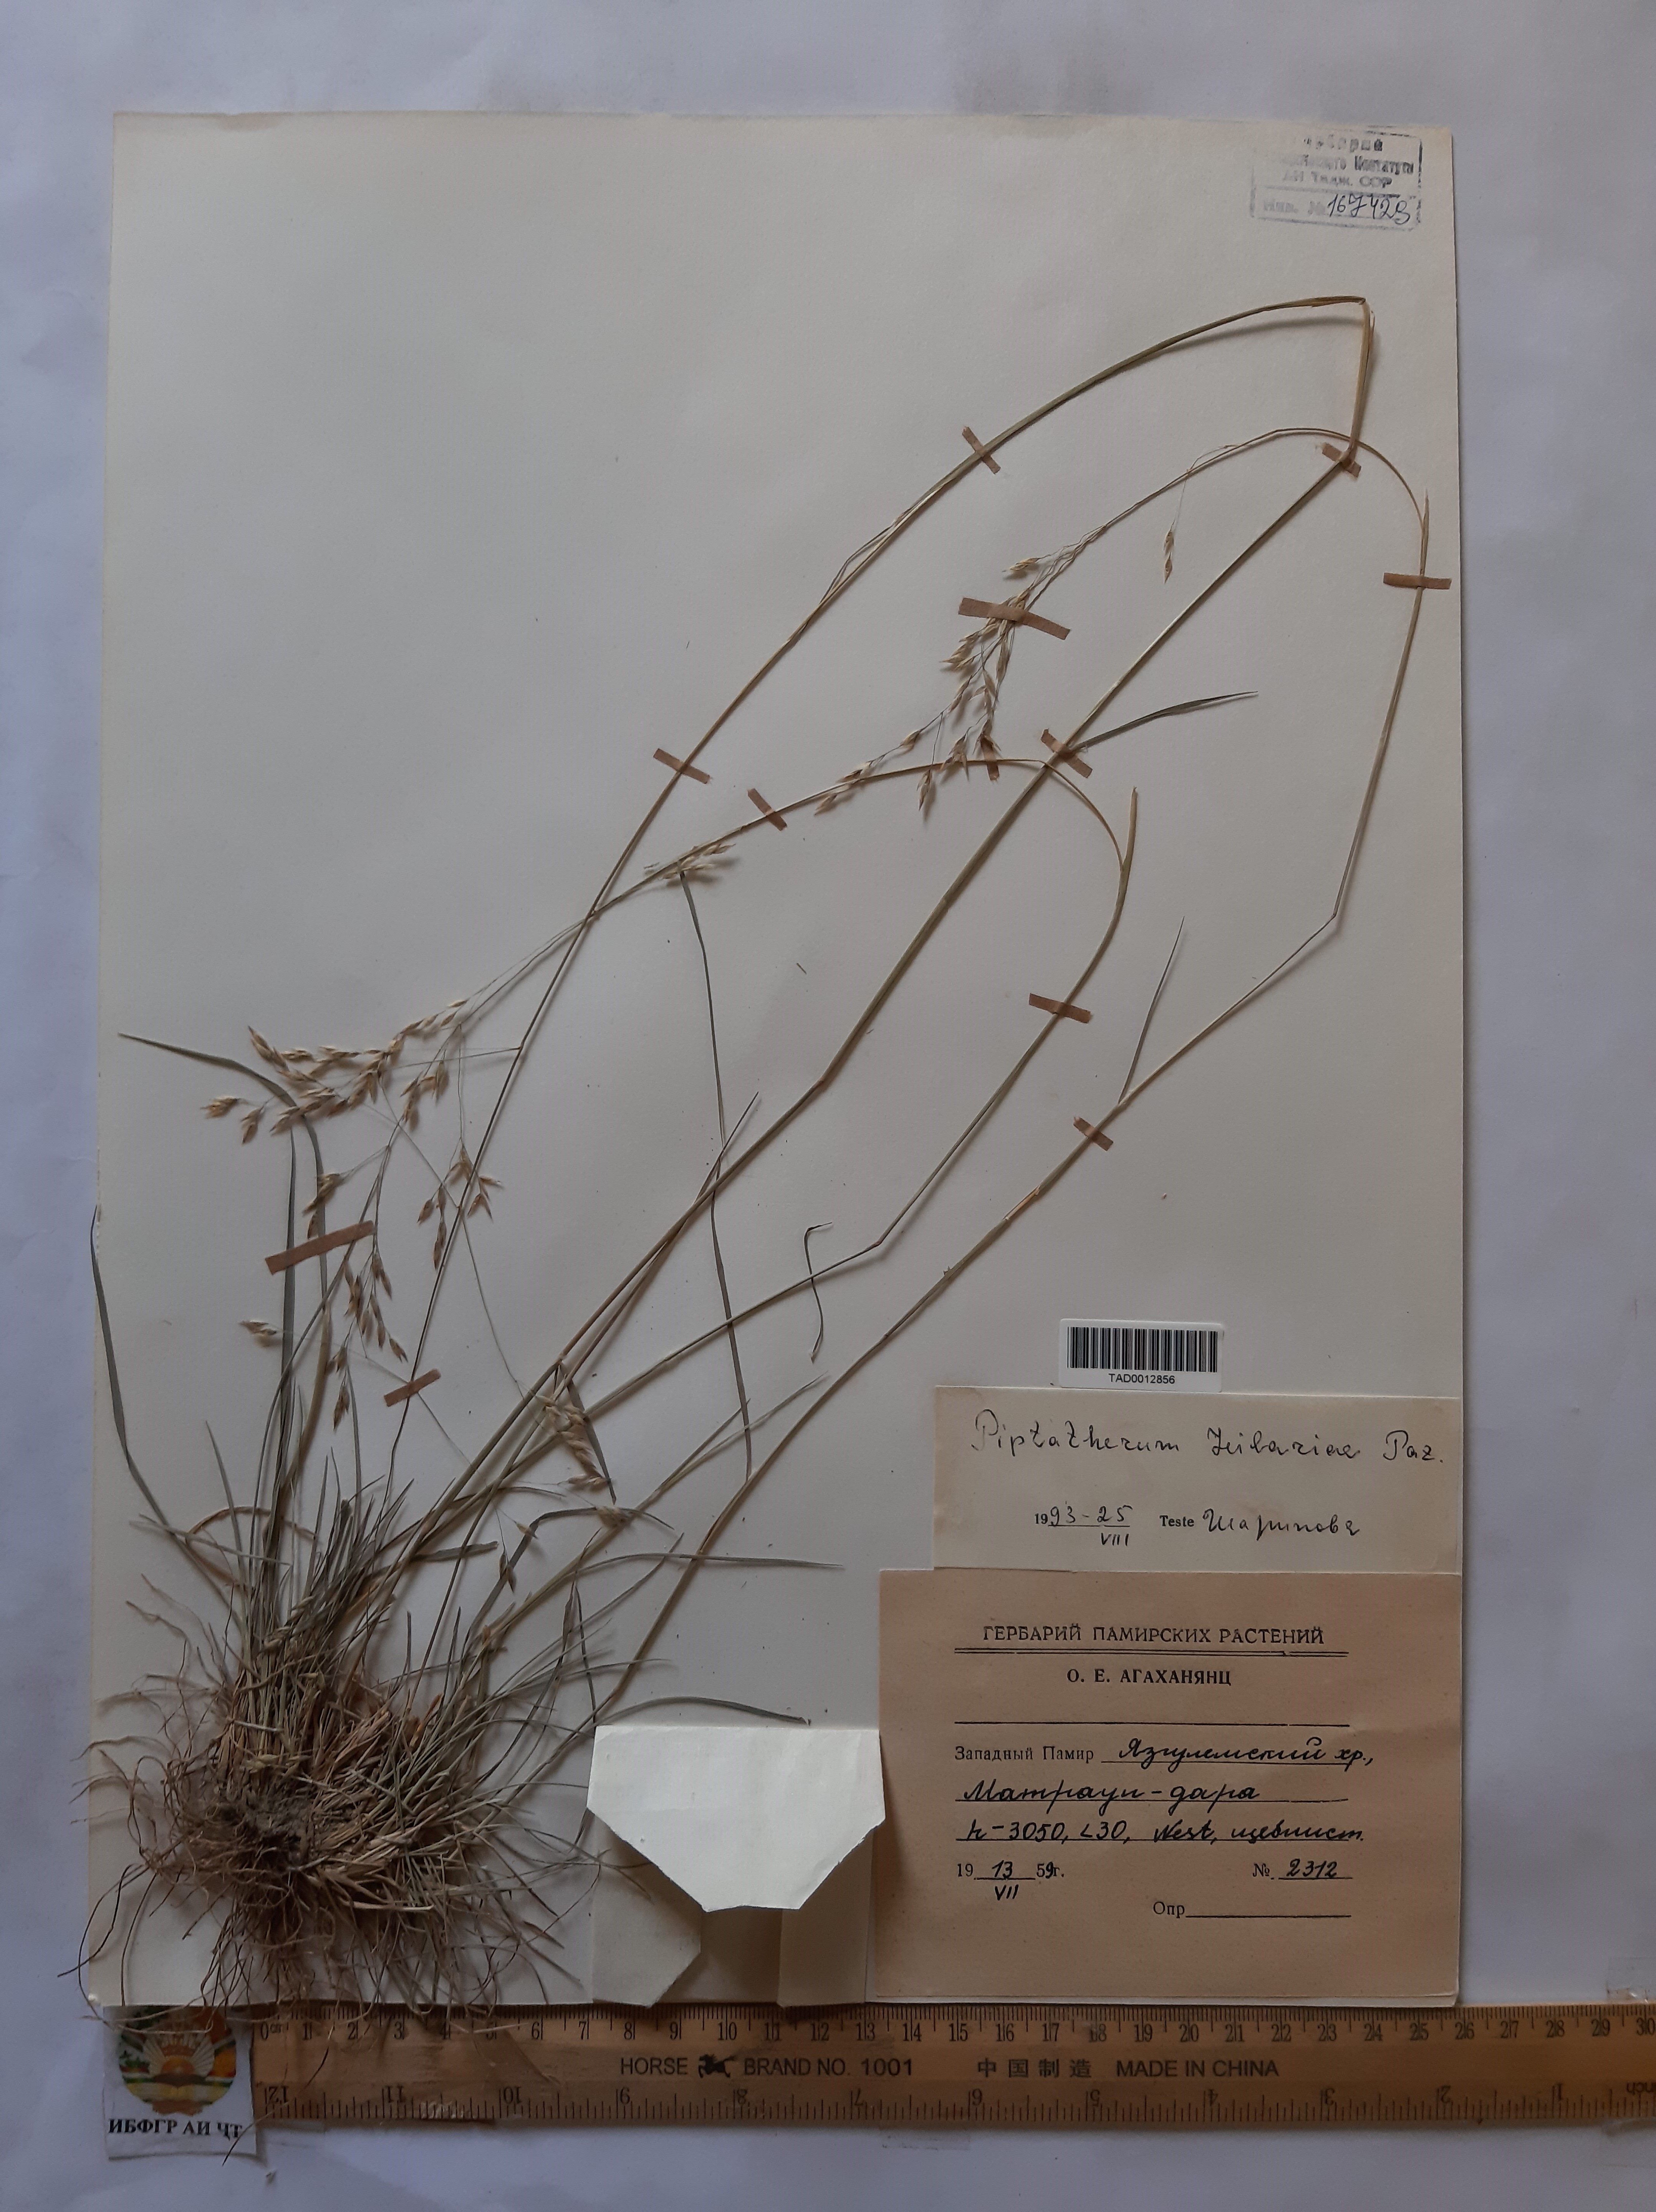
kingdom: Plantae
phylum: Tracheophyta
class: Liliopsida
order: Poales
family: Poaceae
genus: Piptatherum
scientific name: Piptatherum hilariae
